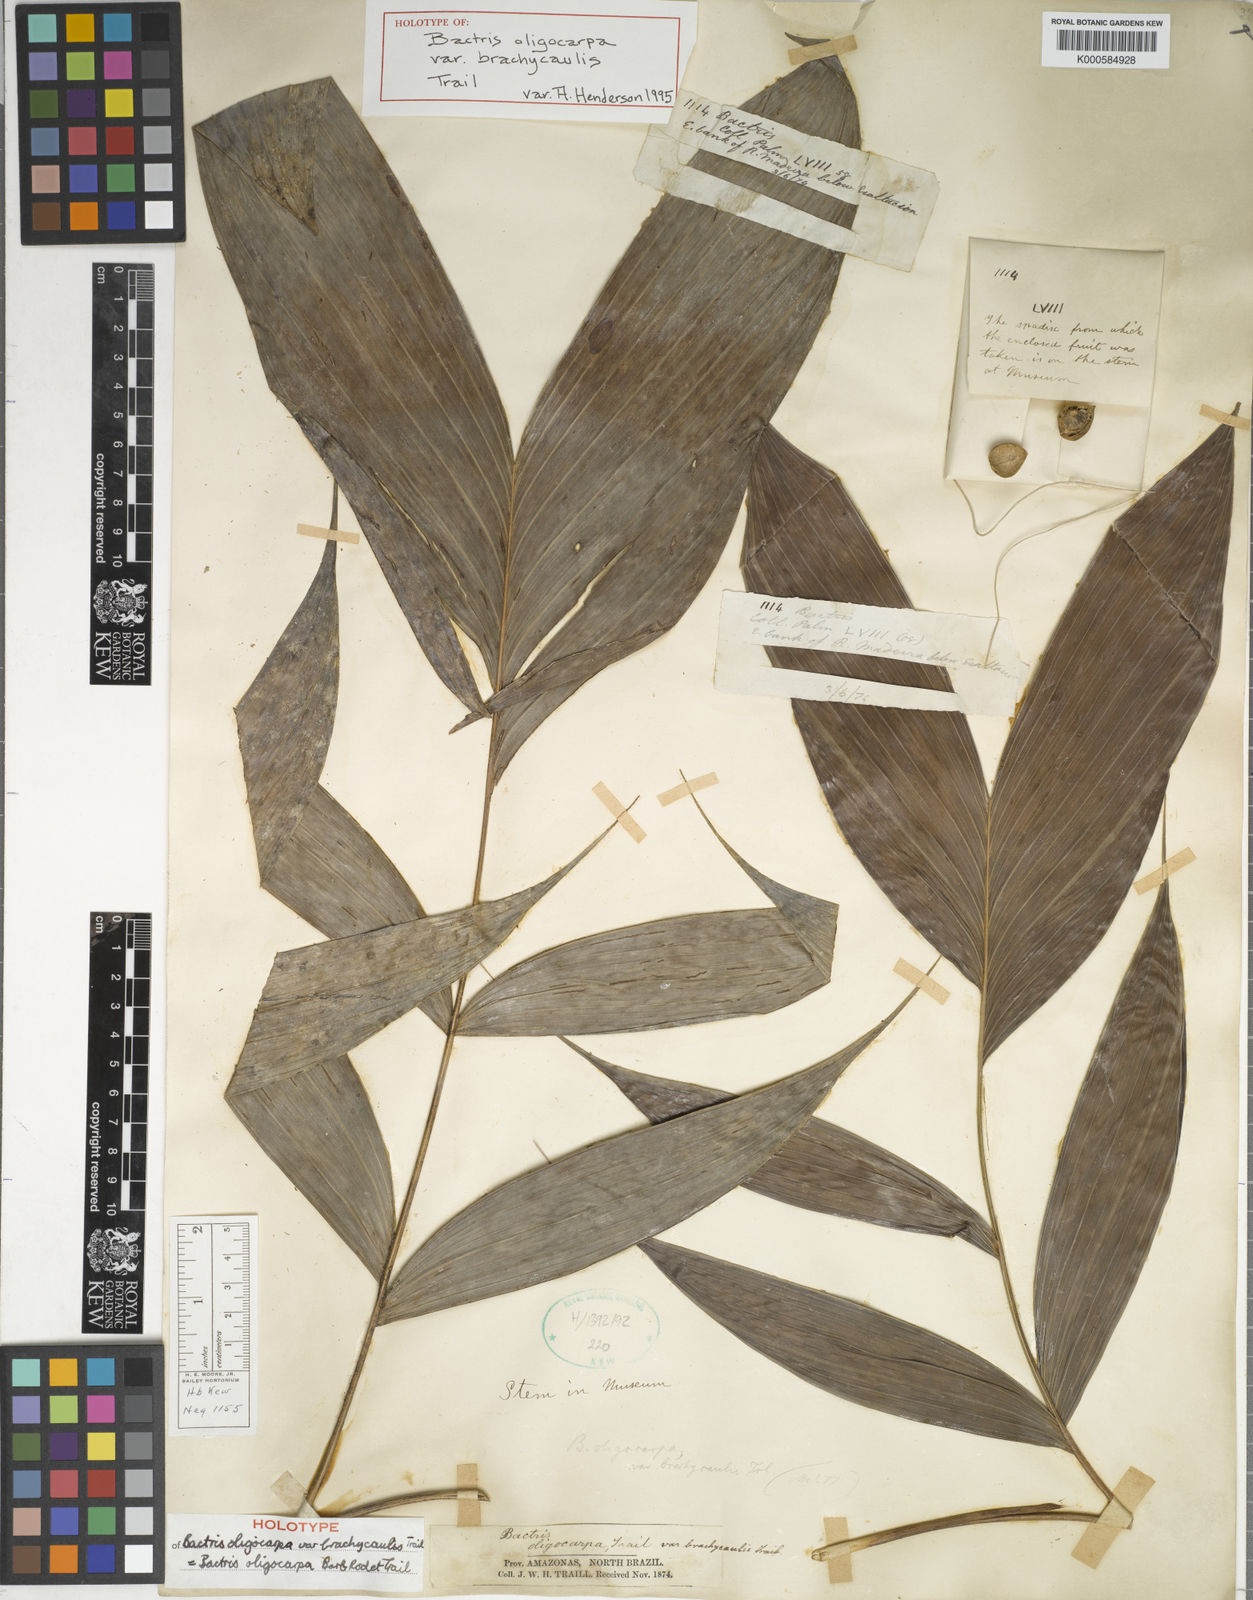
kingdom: Plantae
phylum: Tracheophyta
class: Liliopsida
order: Arecales
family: Arecaceae
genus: Bactris
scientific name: Bactris oligocarpa
